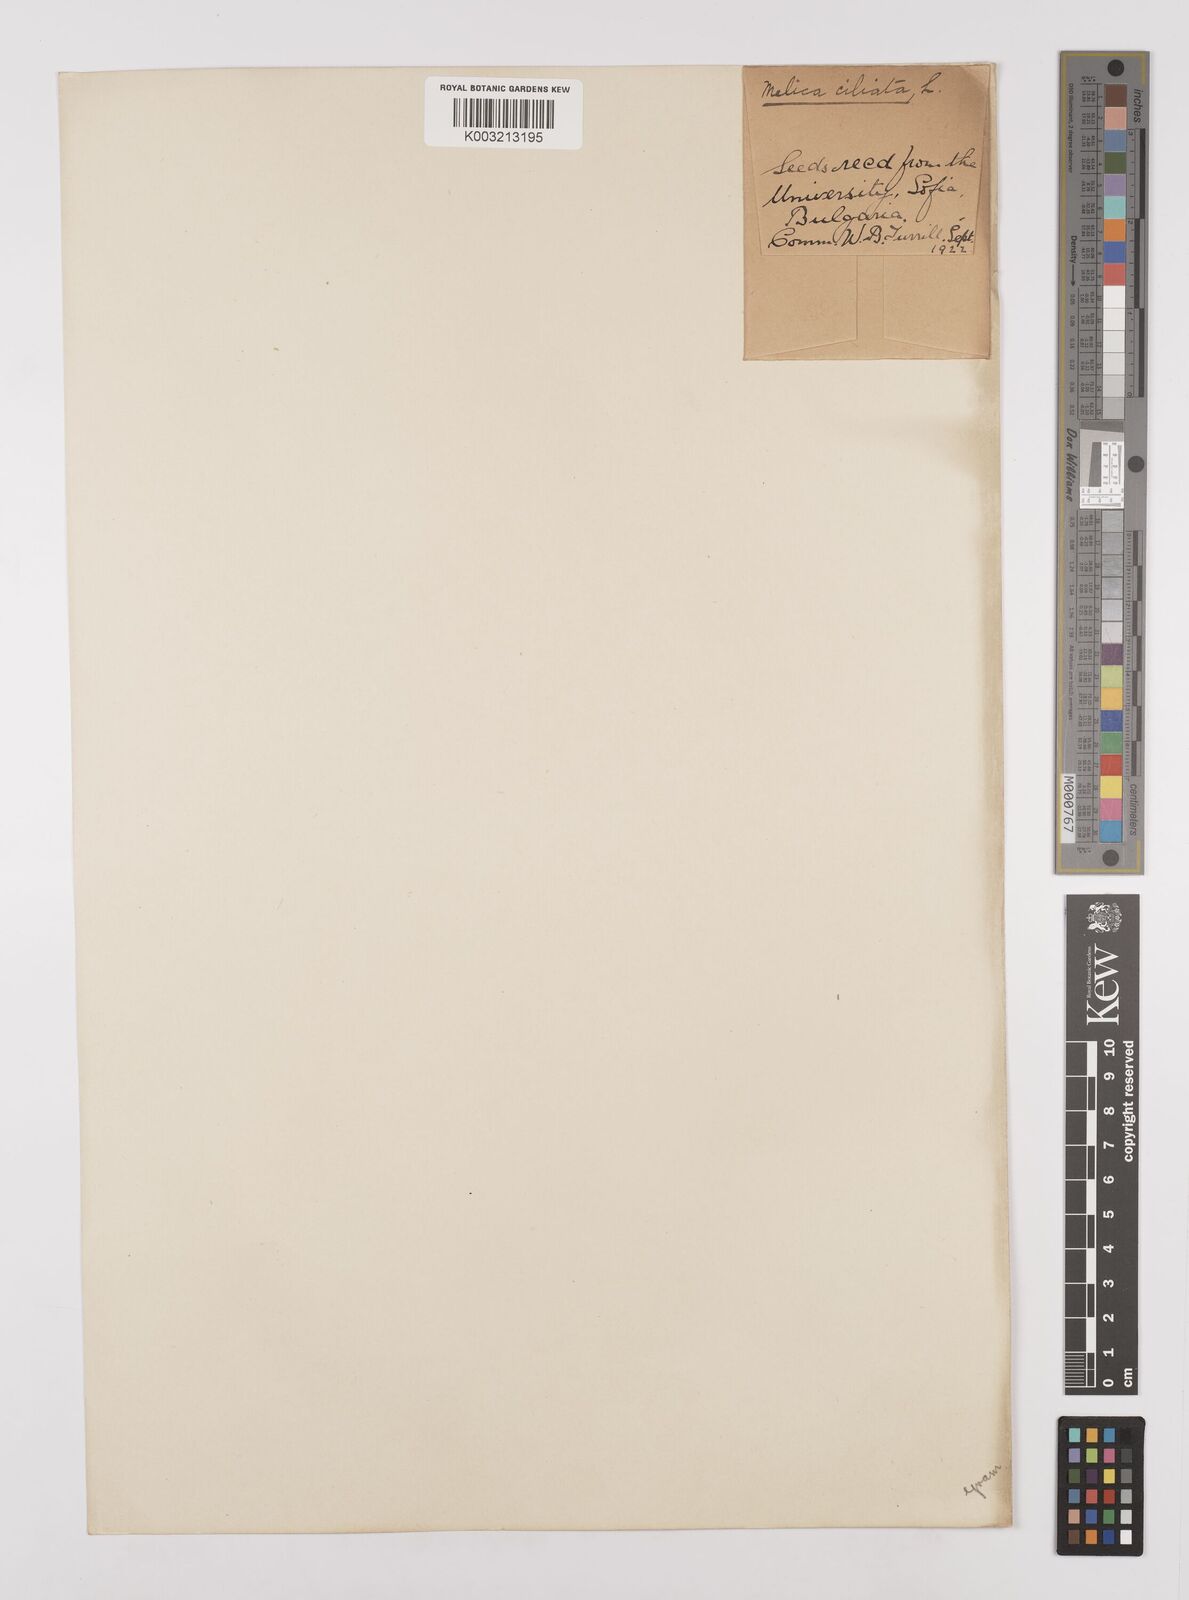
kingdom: Plantae
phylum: Tracheophyta
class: Liliopsida
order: Poales
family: Poaceae
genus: Melica
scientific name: Melica ciliata
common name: Hairy melicgrass
